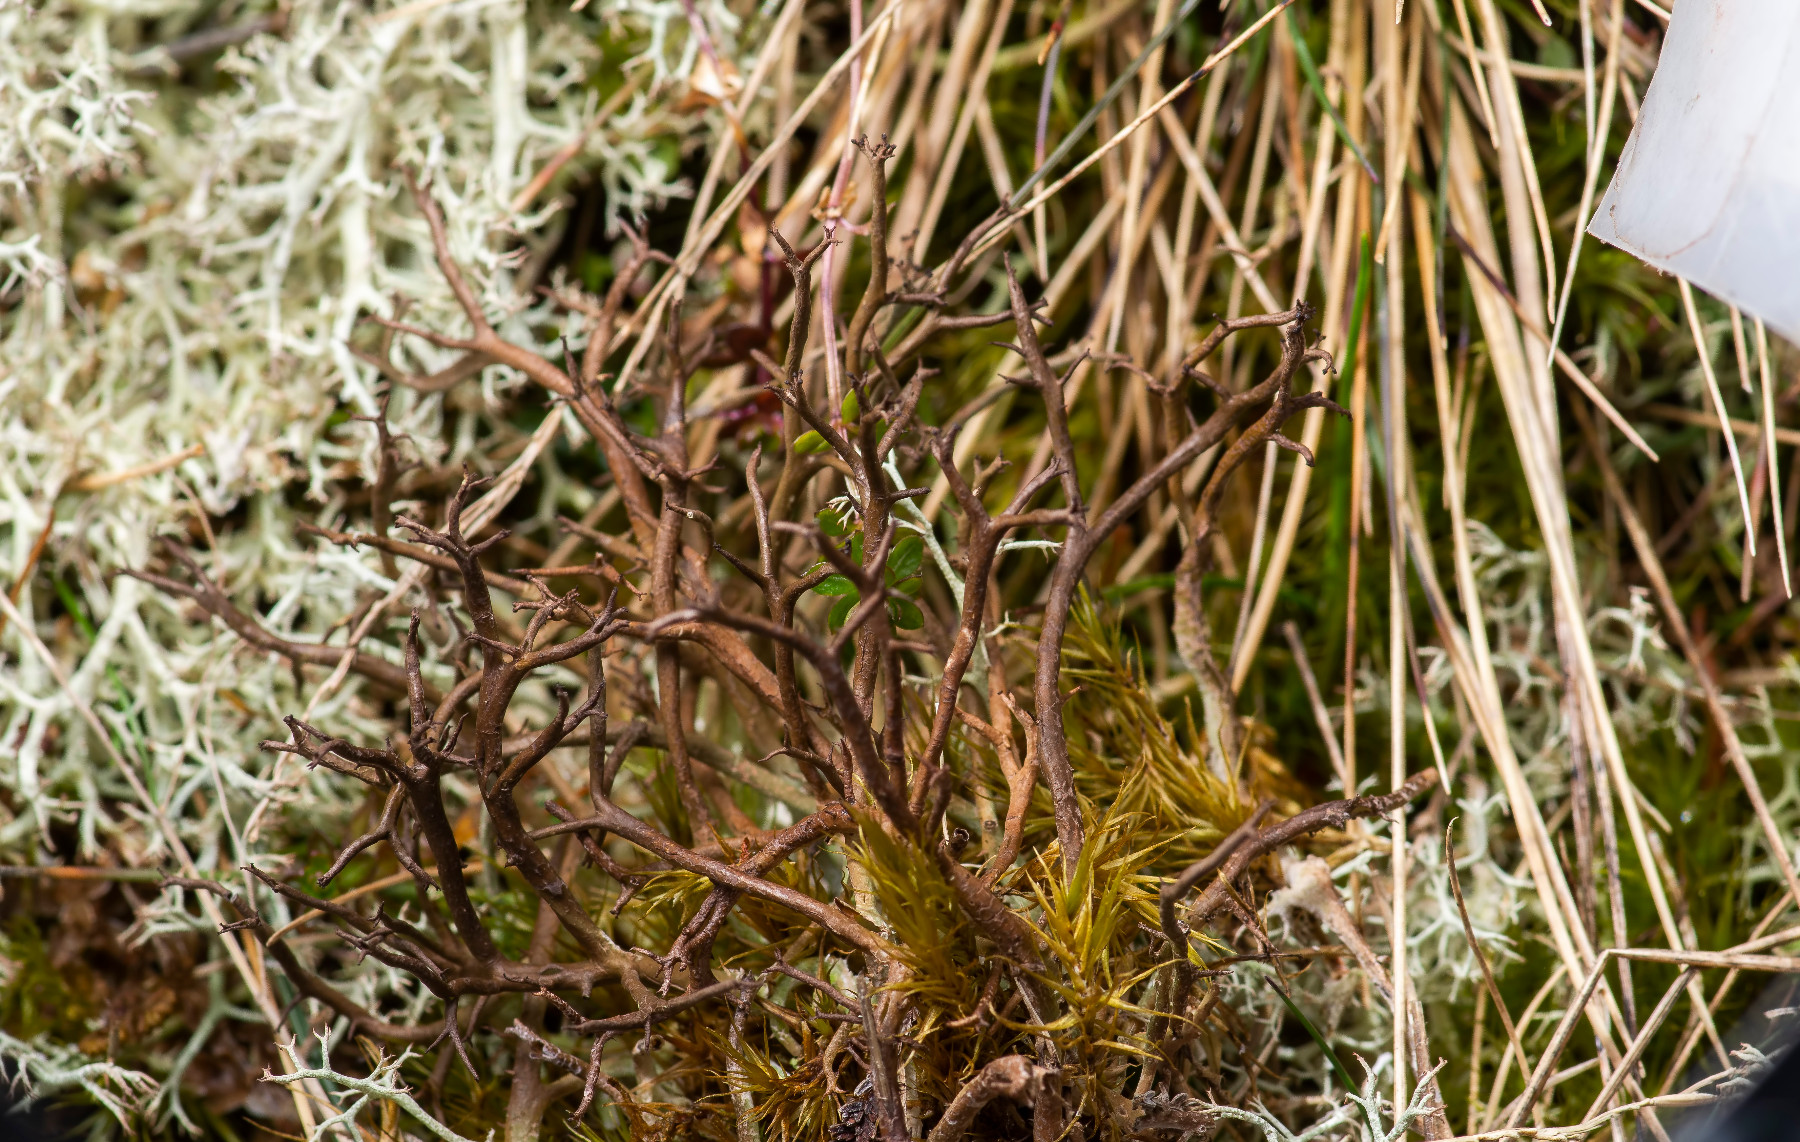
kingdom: Fungi
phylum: Ascomycota
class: Lecanoromycetes
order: Lecanorales
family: Cladoniaceae
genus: Cladonia
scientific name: Cladonia furcata
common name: kløftet bægerlav
